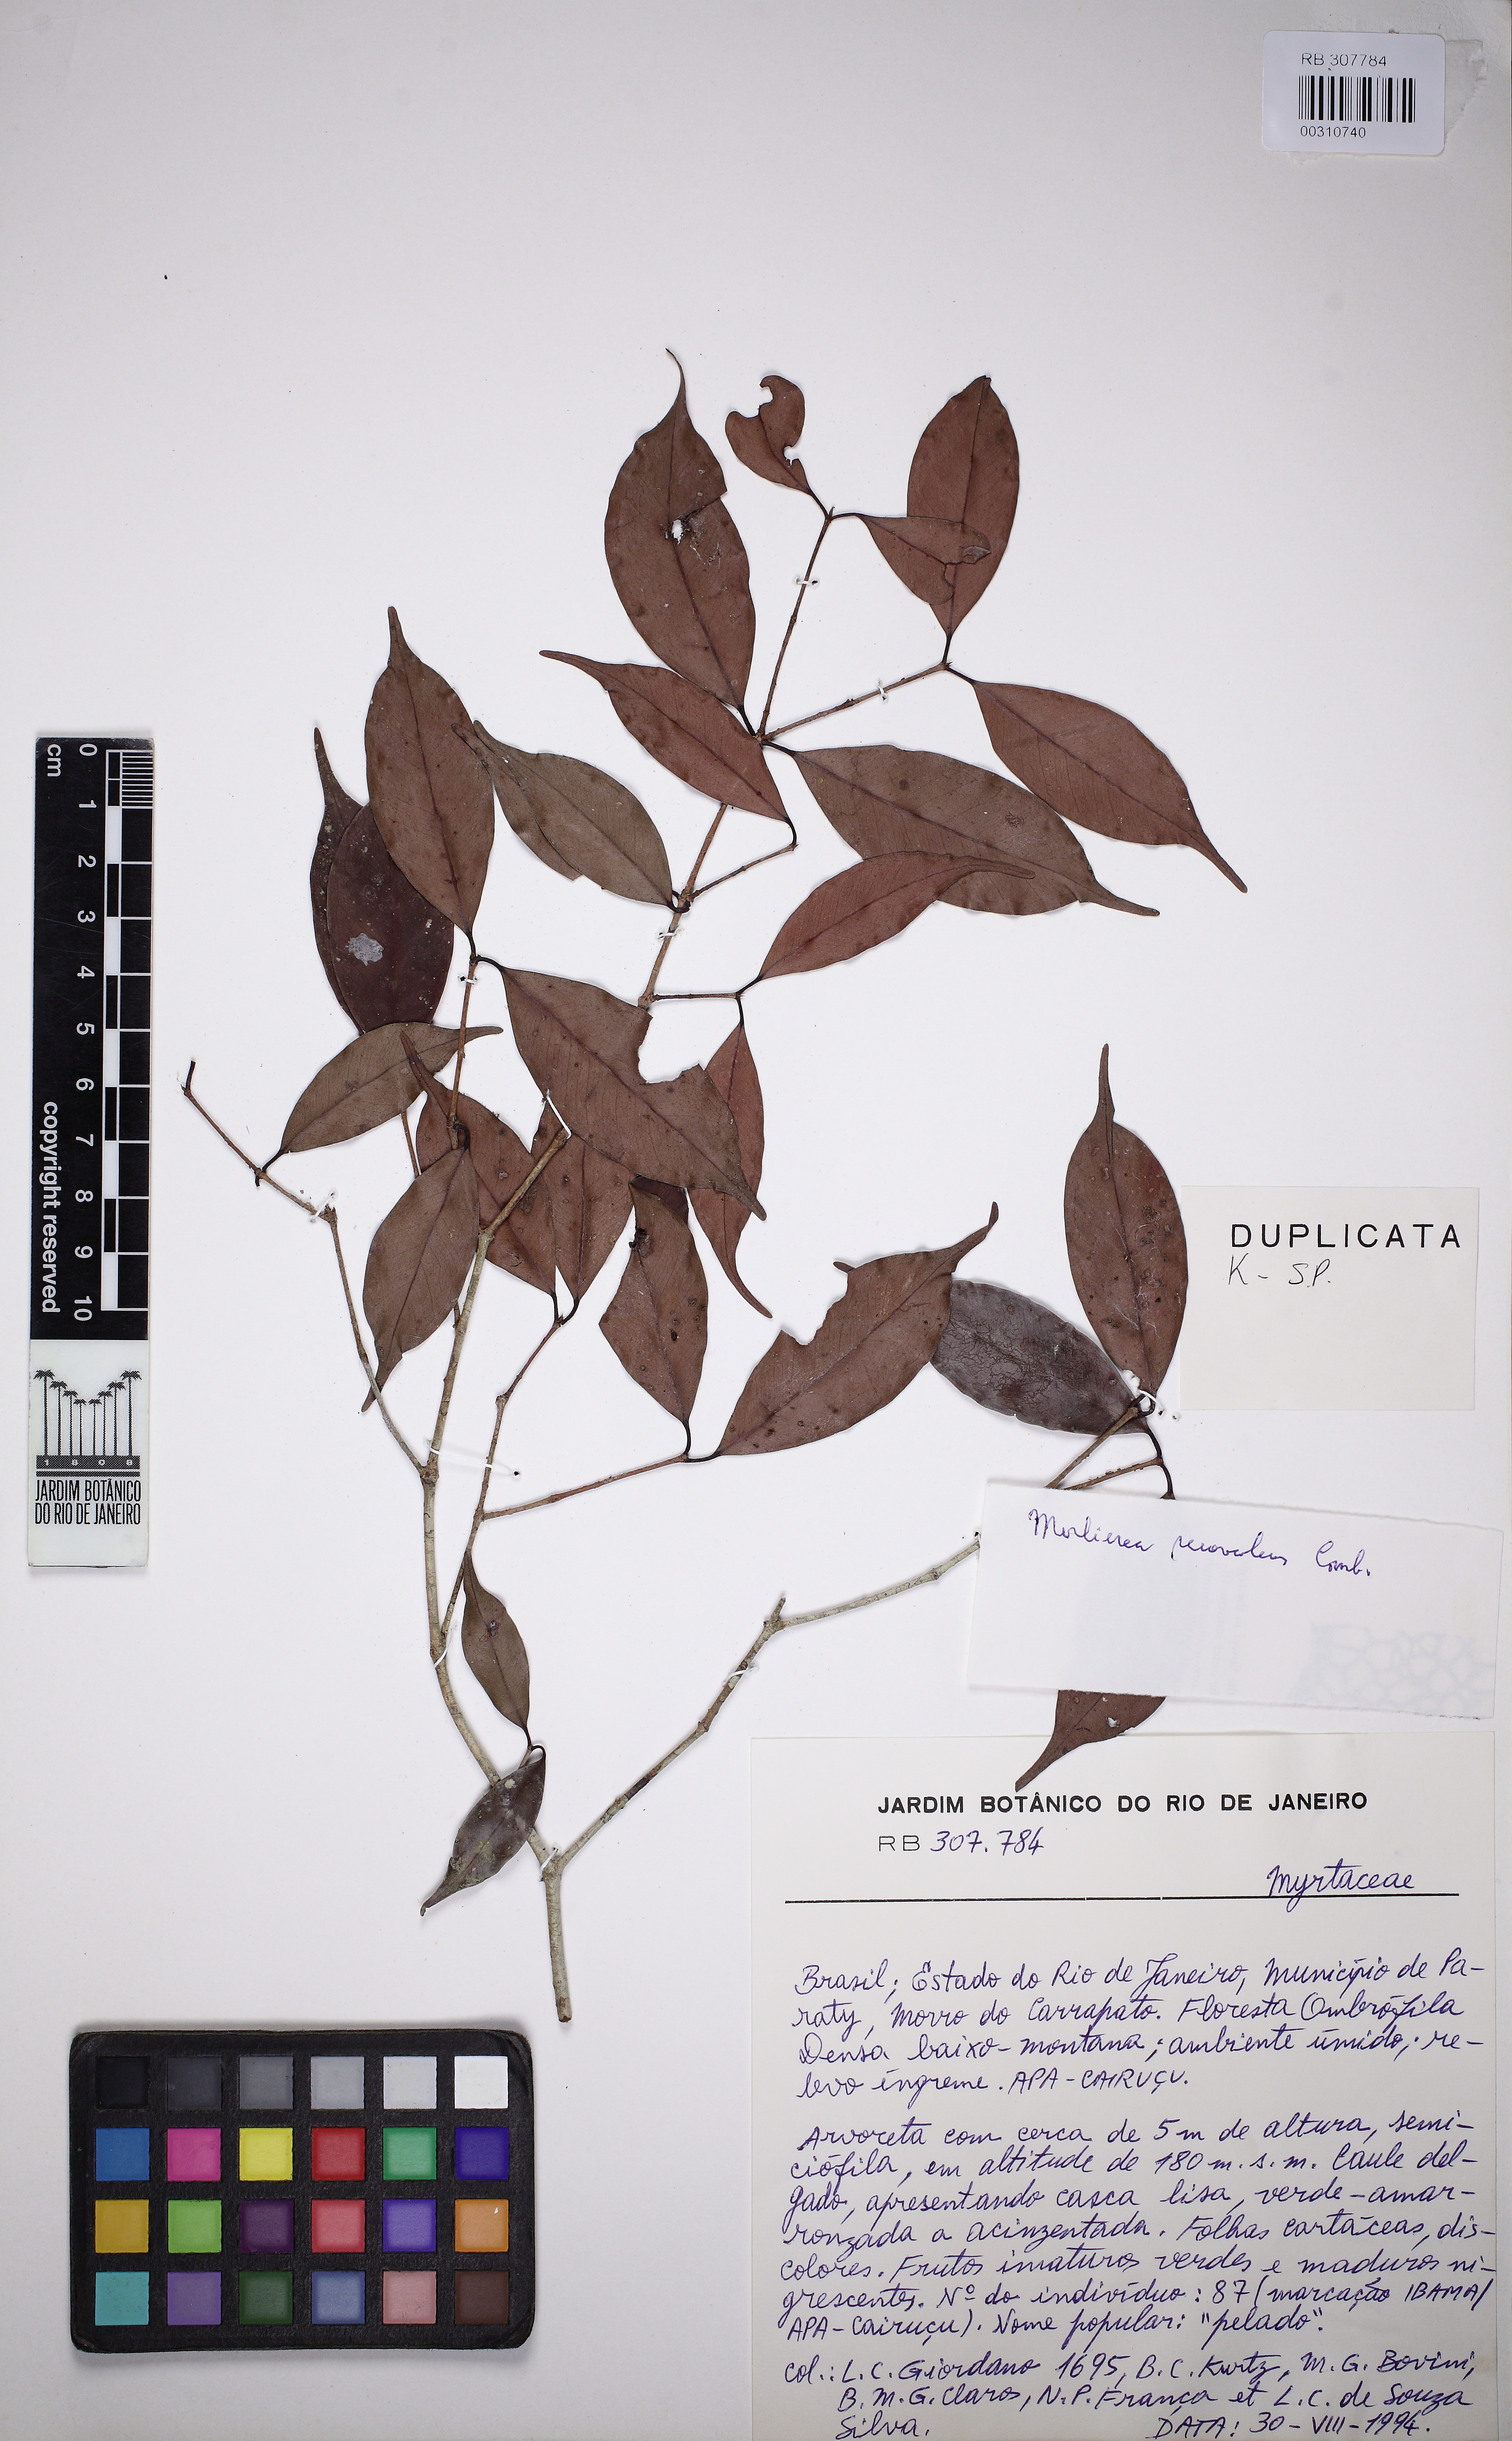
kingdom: Plantae
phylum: Tracheophyta
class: Magnoliopsida
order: Myrtales
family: Myrtaceae
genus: Myrcia
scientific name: Myrcia neosuaveolens
